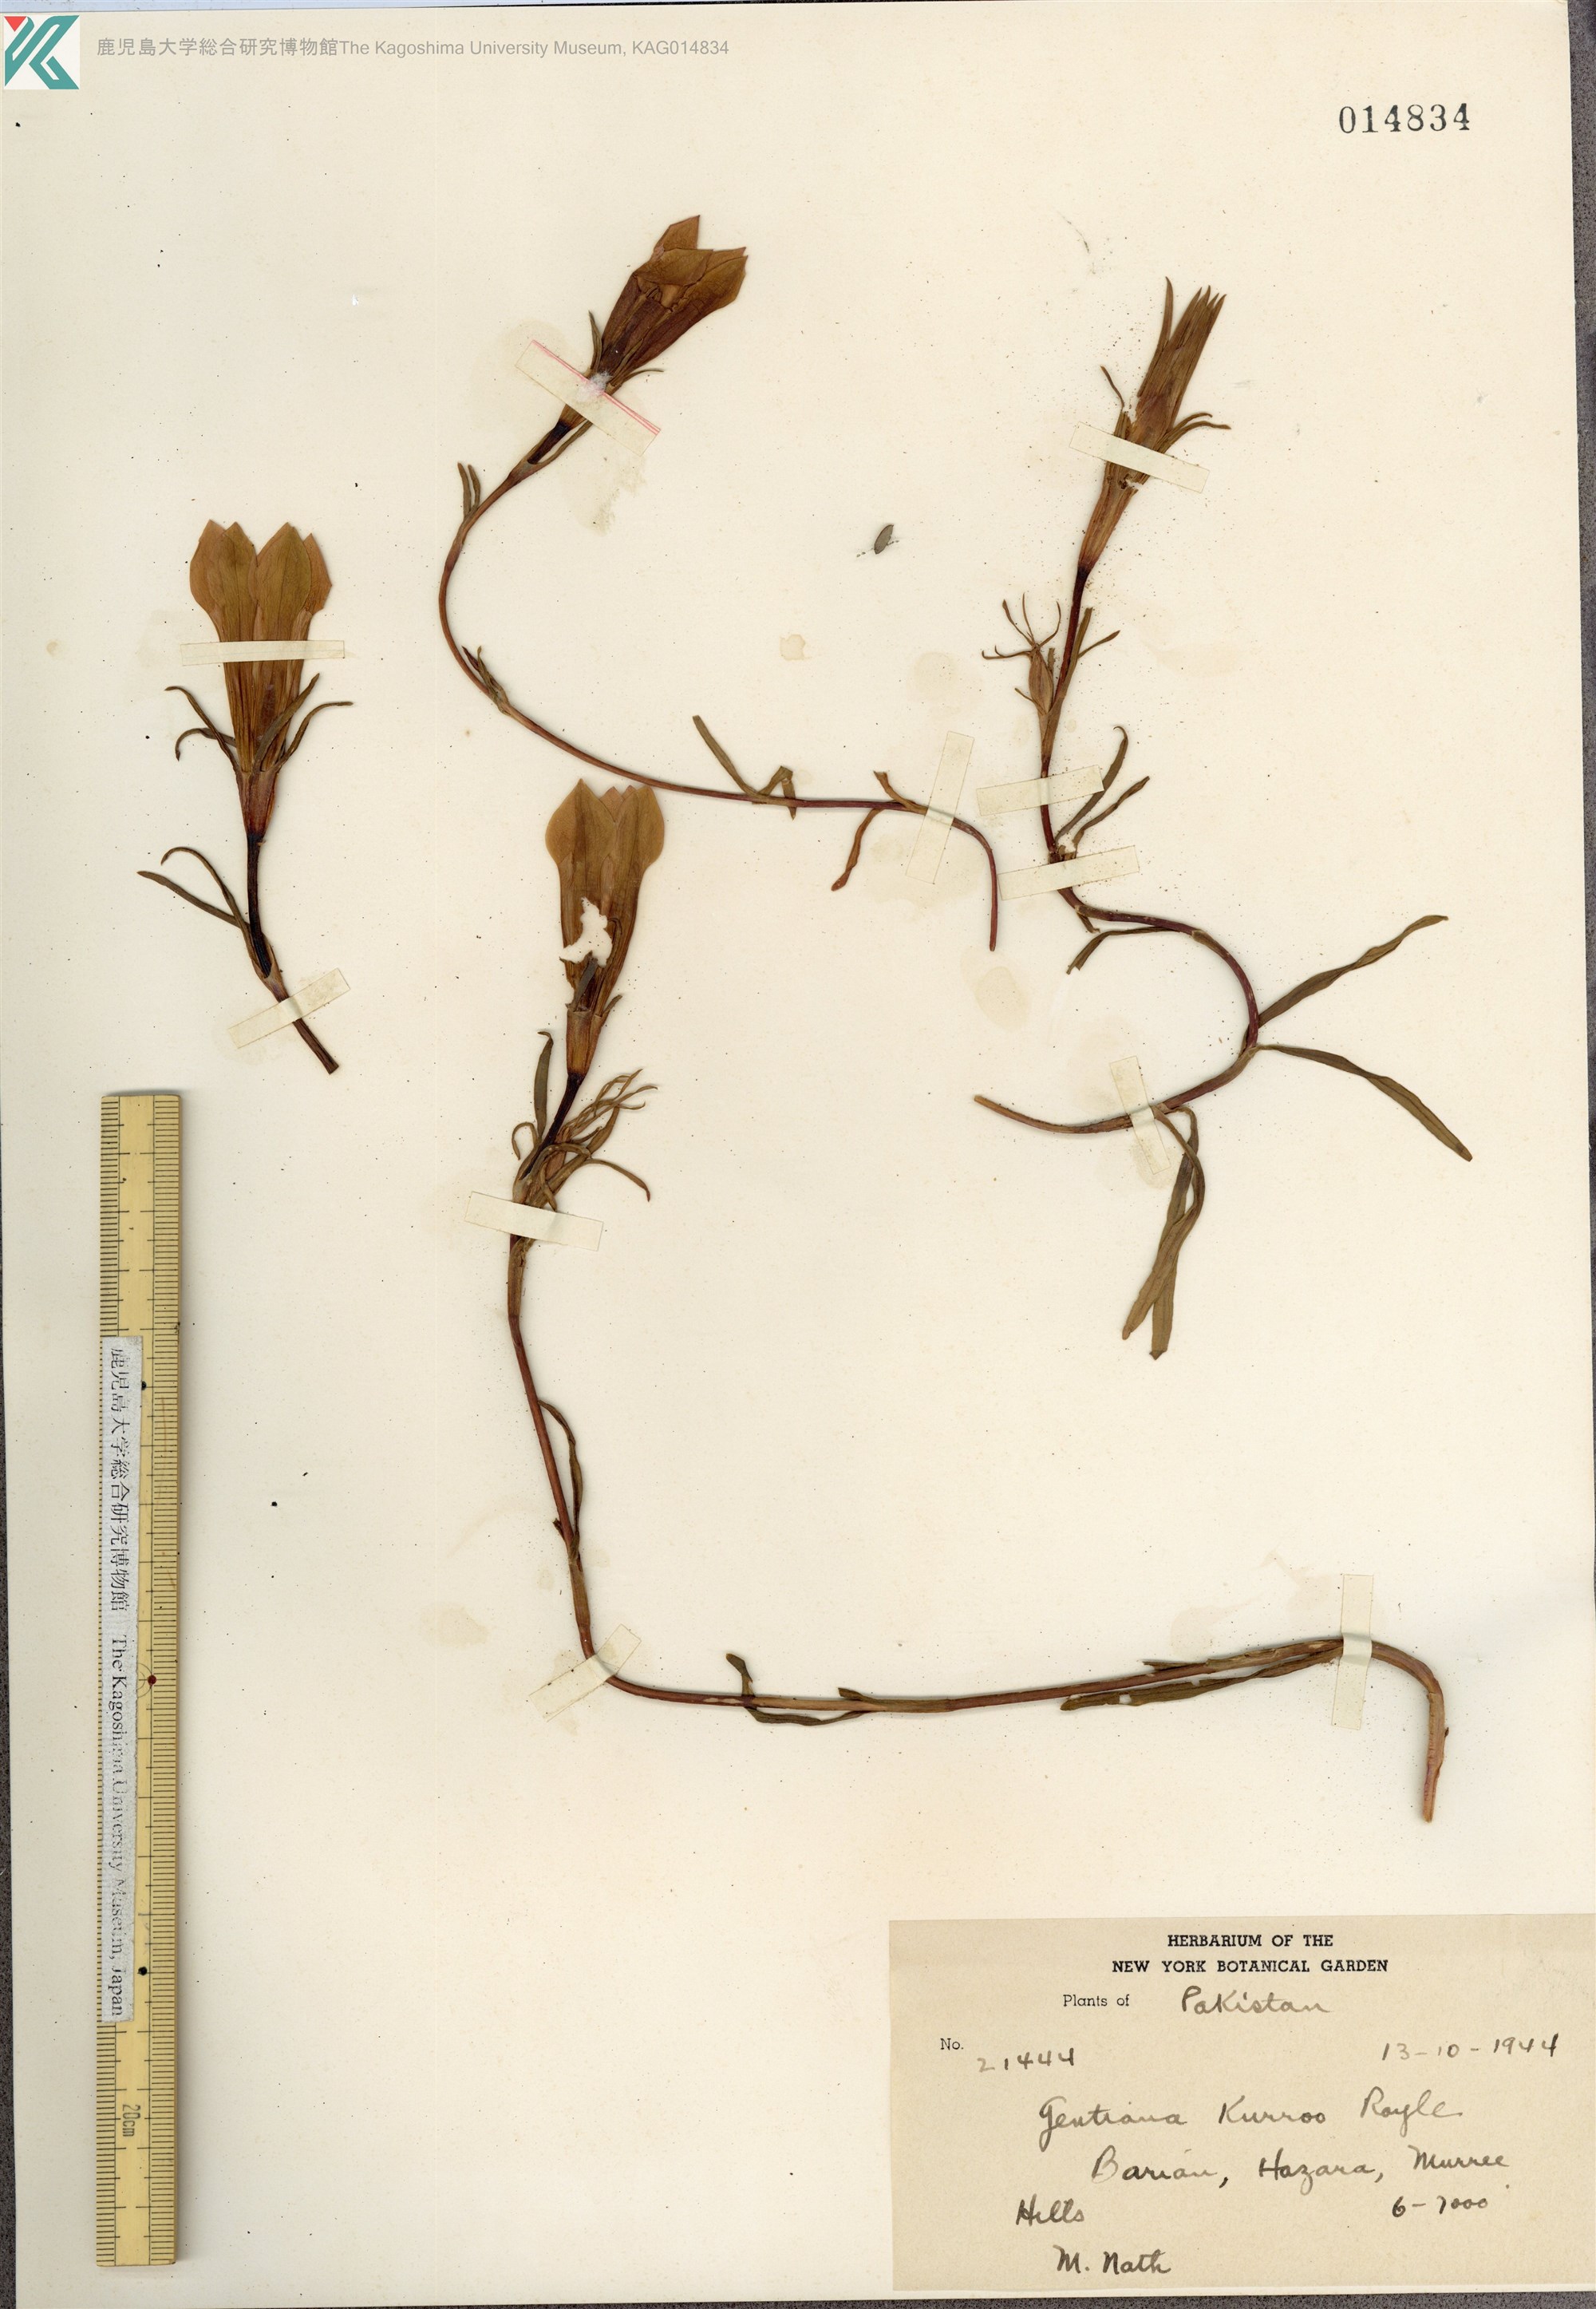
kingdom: Plantae
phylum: Tracheophyta
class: Magnoliopsida
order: Gentianales
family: Gentianaceae
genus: Gentiana
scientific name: Gentiana kurroo
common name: Himalayan gentian
